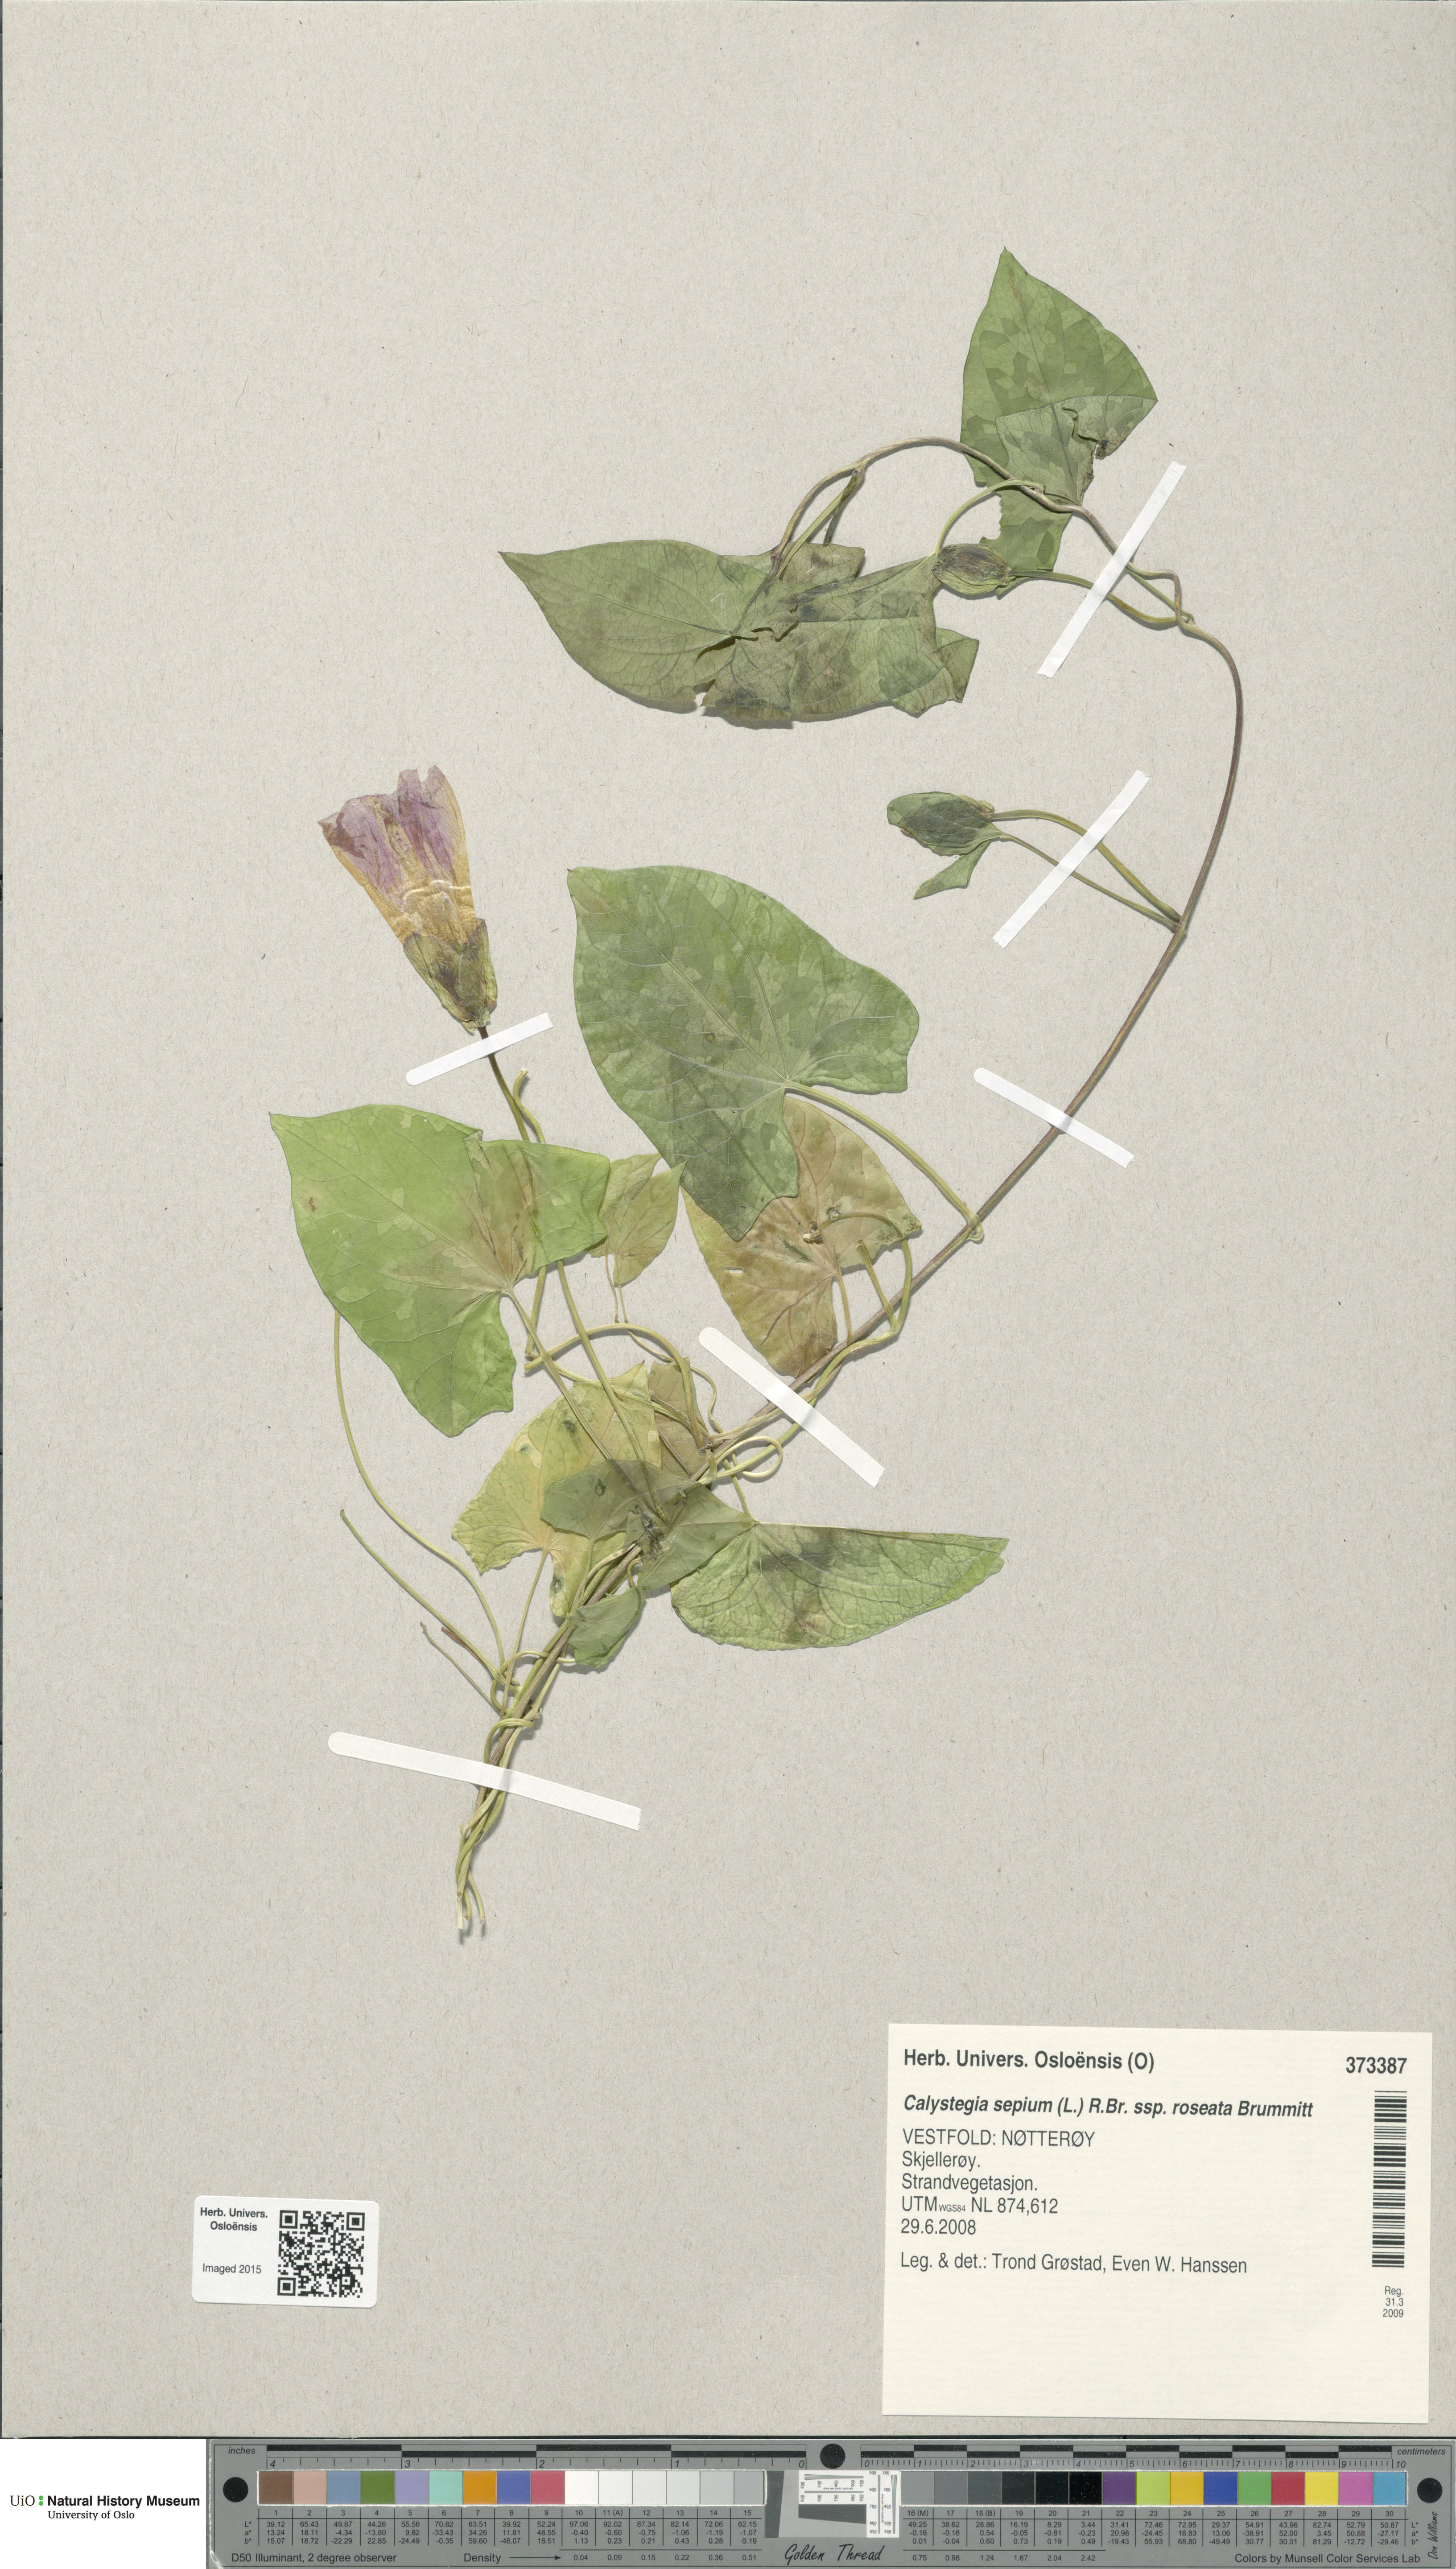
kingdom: Plantae
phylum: Tracheophyta
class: Magnoliopsida
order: Solanales
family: Convolvulaceae
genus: Calystegia
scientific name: Calystegia pulchra
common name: Hairy bindweed
